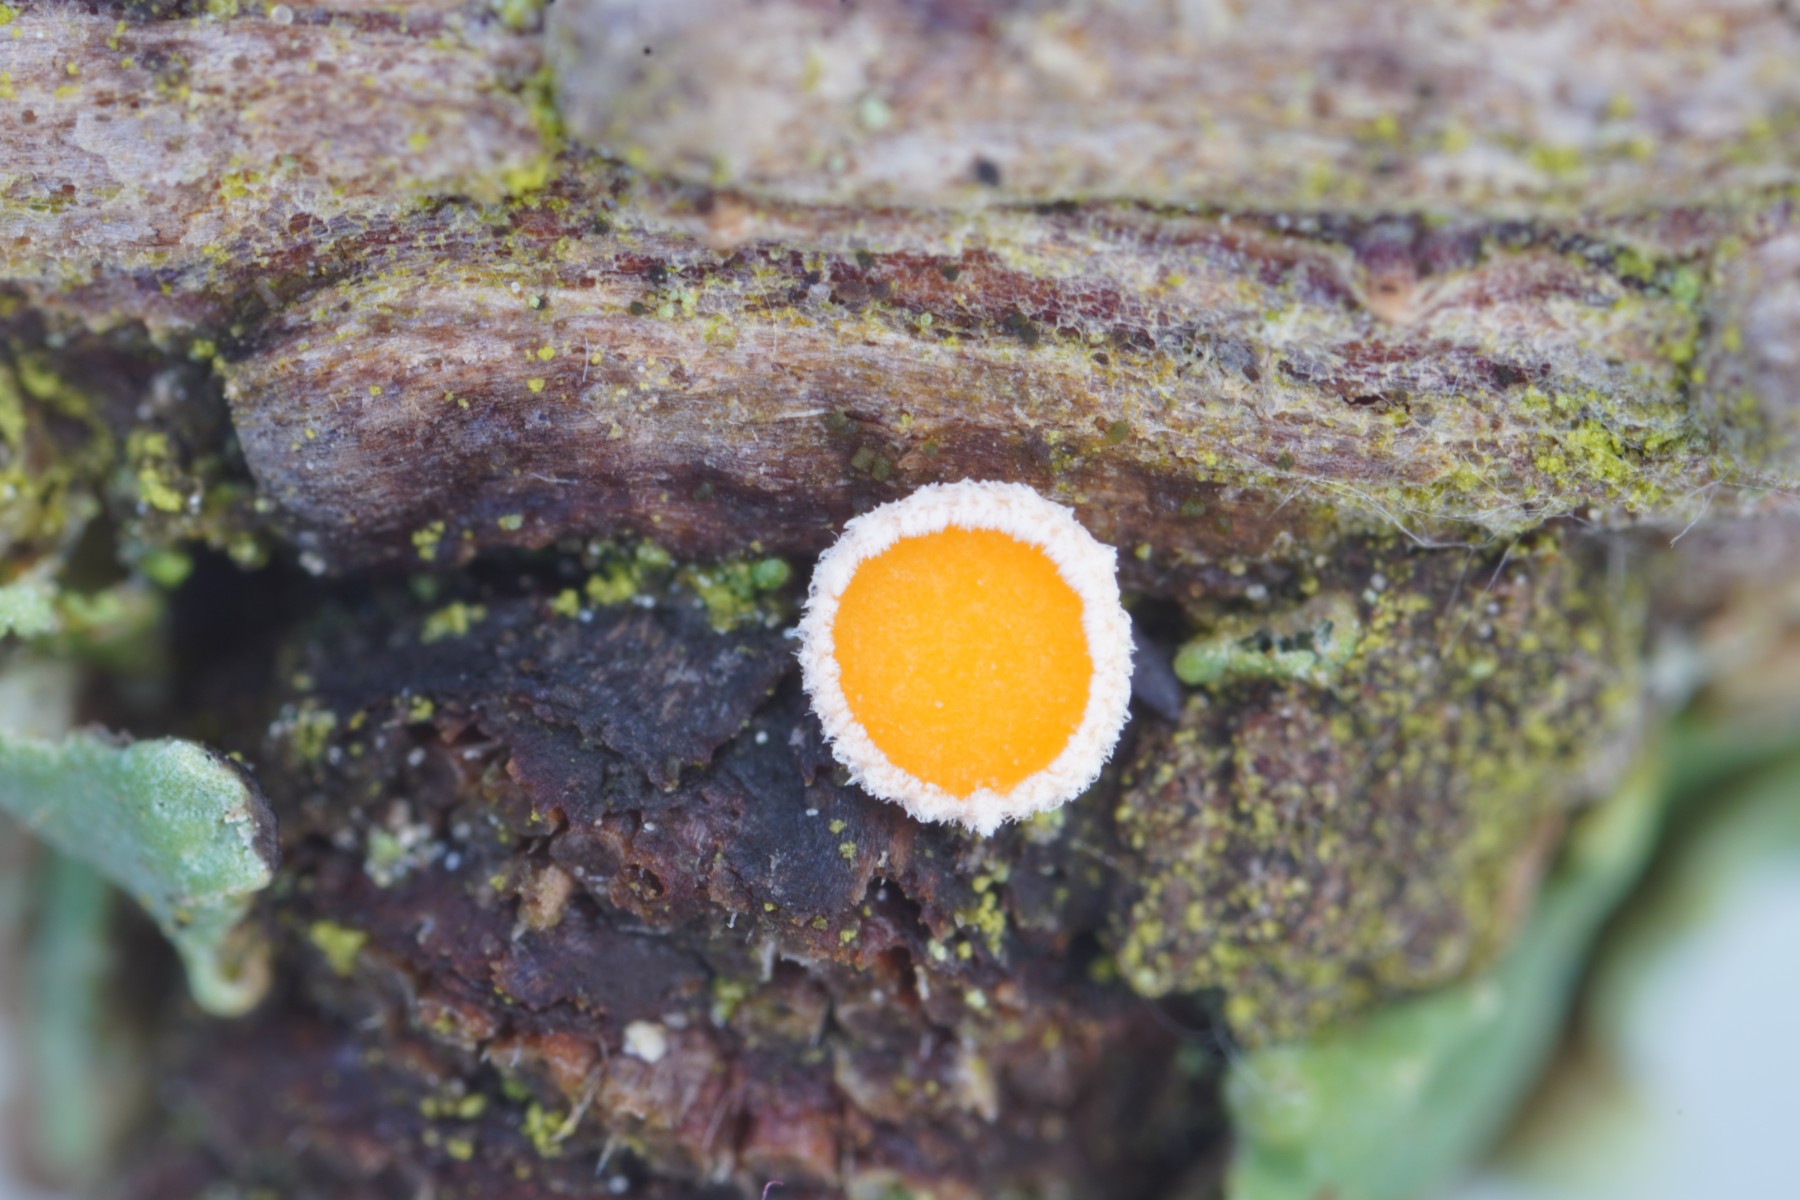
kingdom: Fungi
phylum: Ascomycota
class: Leotiomycetes
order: Helotiales
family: Lachnaceae
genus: Lachnellula
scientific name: Lachnellula occidentalis
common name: Larch disco
